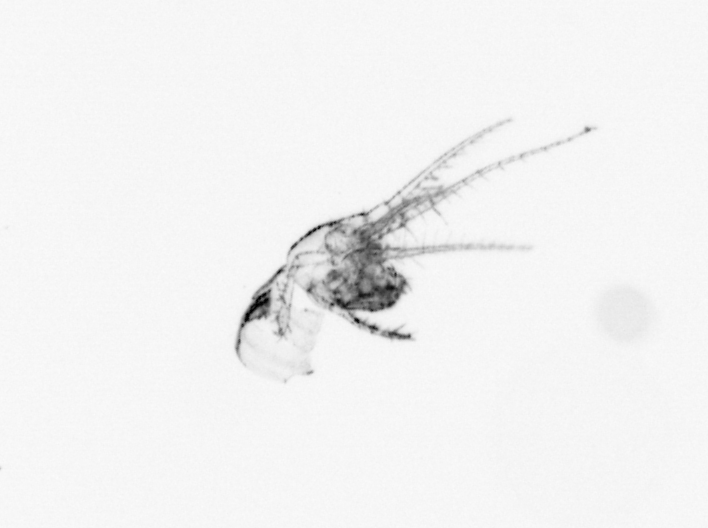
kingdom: Animalia
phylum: Arthropoda
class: Maxillopoda
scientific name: Maxillopoda
